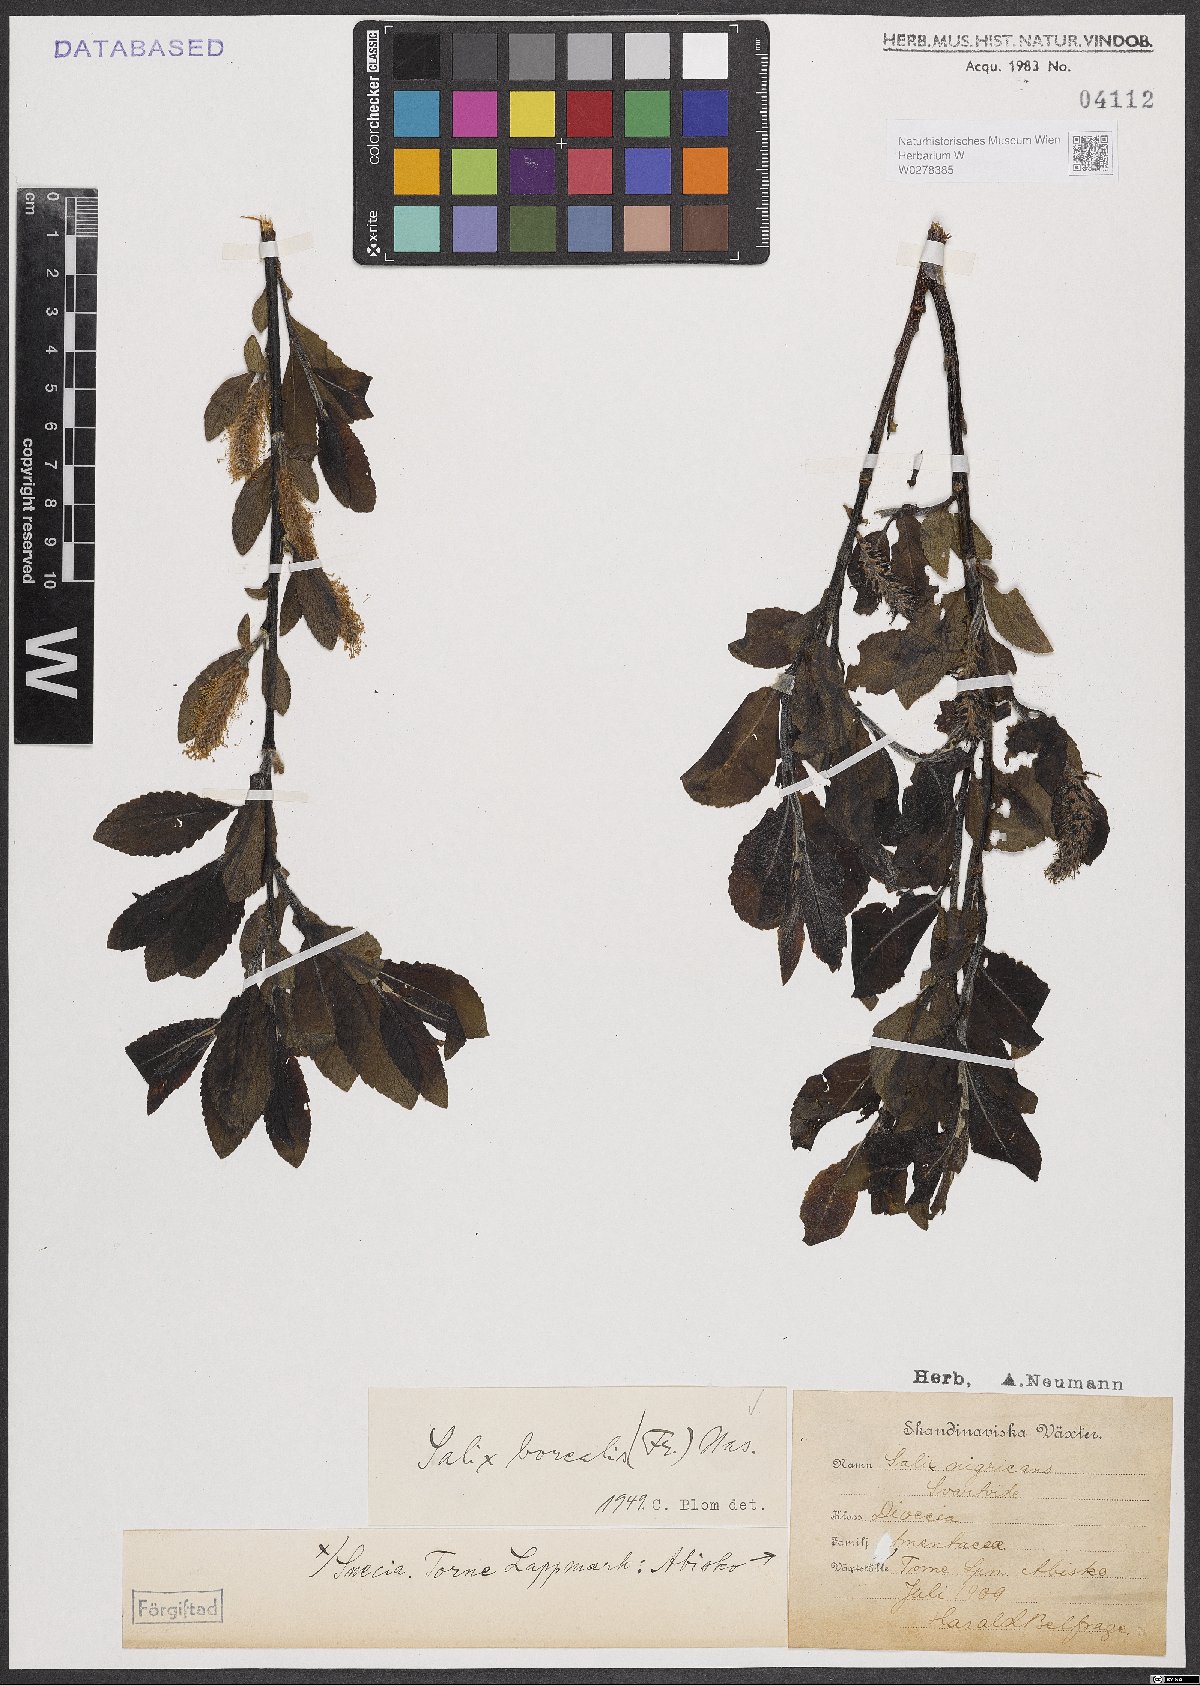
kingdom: Plantae
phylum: Tracheophyta
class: Magnoliopsida
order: Malpighiales
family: Salicaceae
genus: Salix
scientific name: Salix myrsinifolia
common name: Dark-leaved willow
